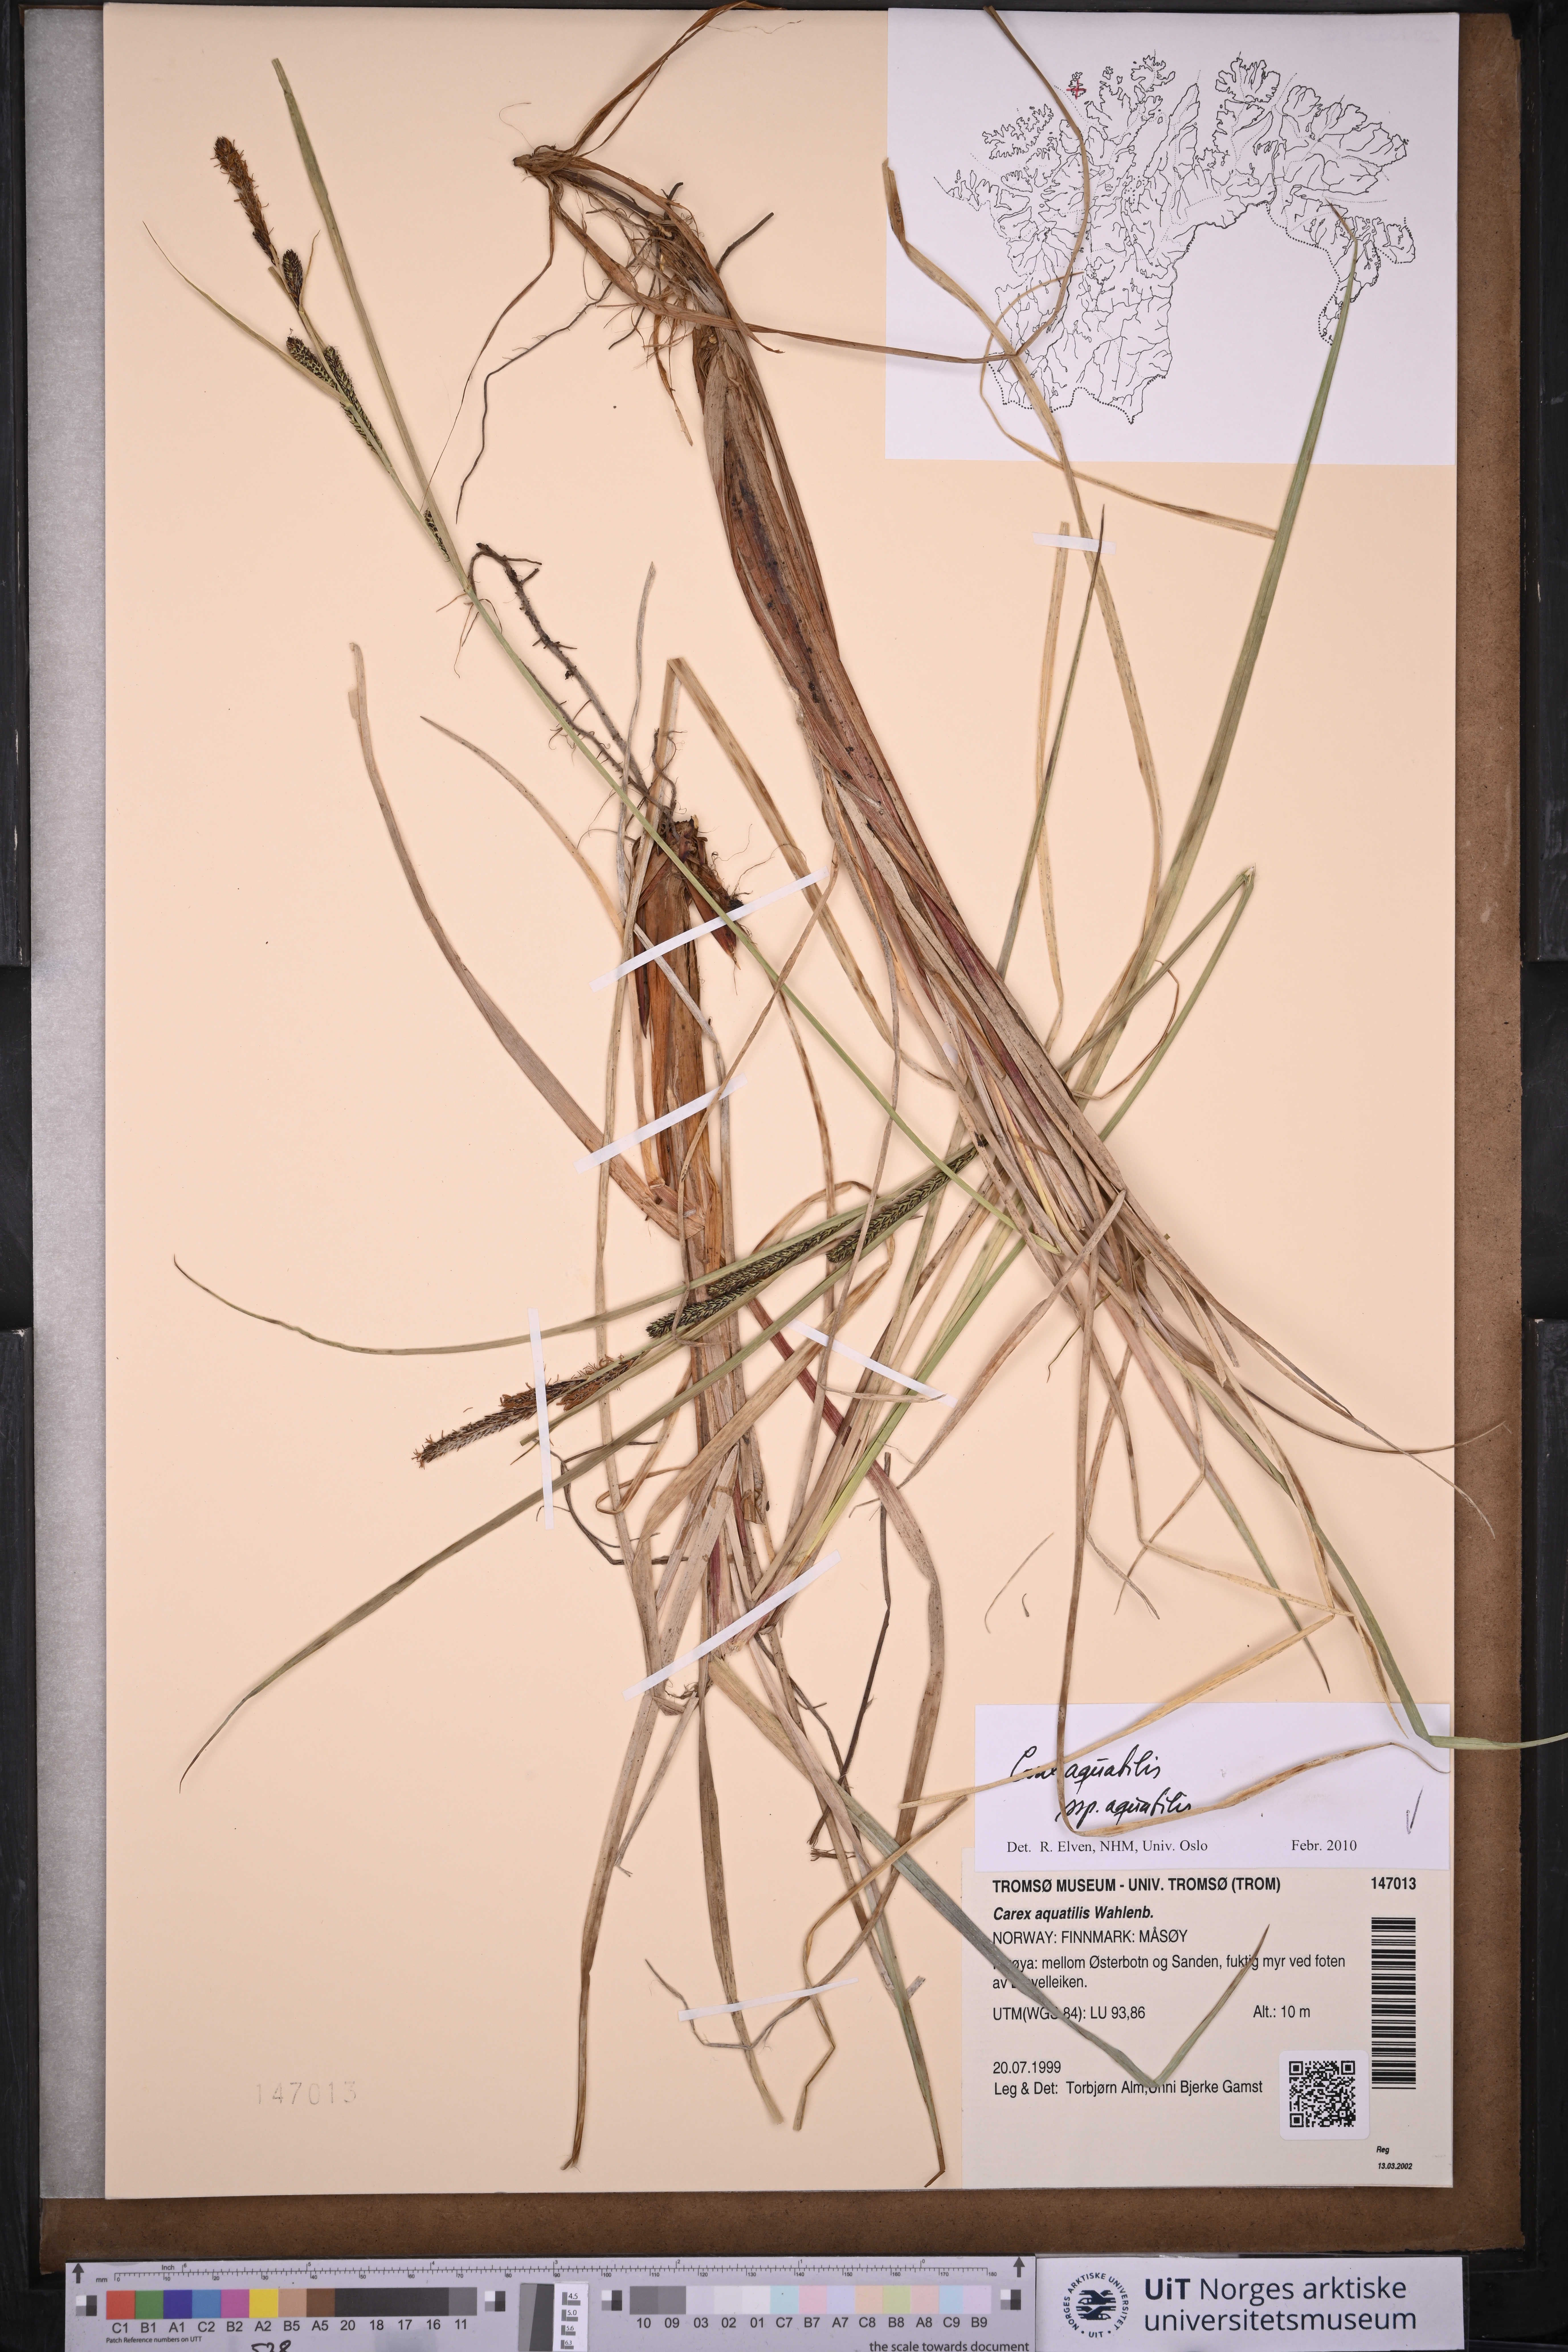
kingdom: Plantae
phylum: Tracheophyta
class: Liliopsida
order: Poales
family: Cyperaceae
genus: Carex
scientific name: Carex aquatilis
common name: Water sedge
